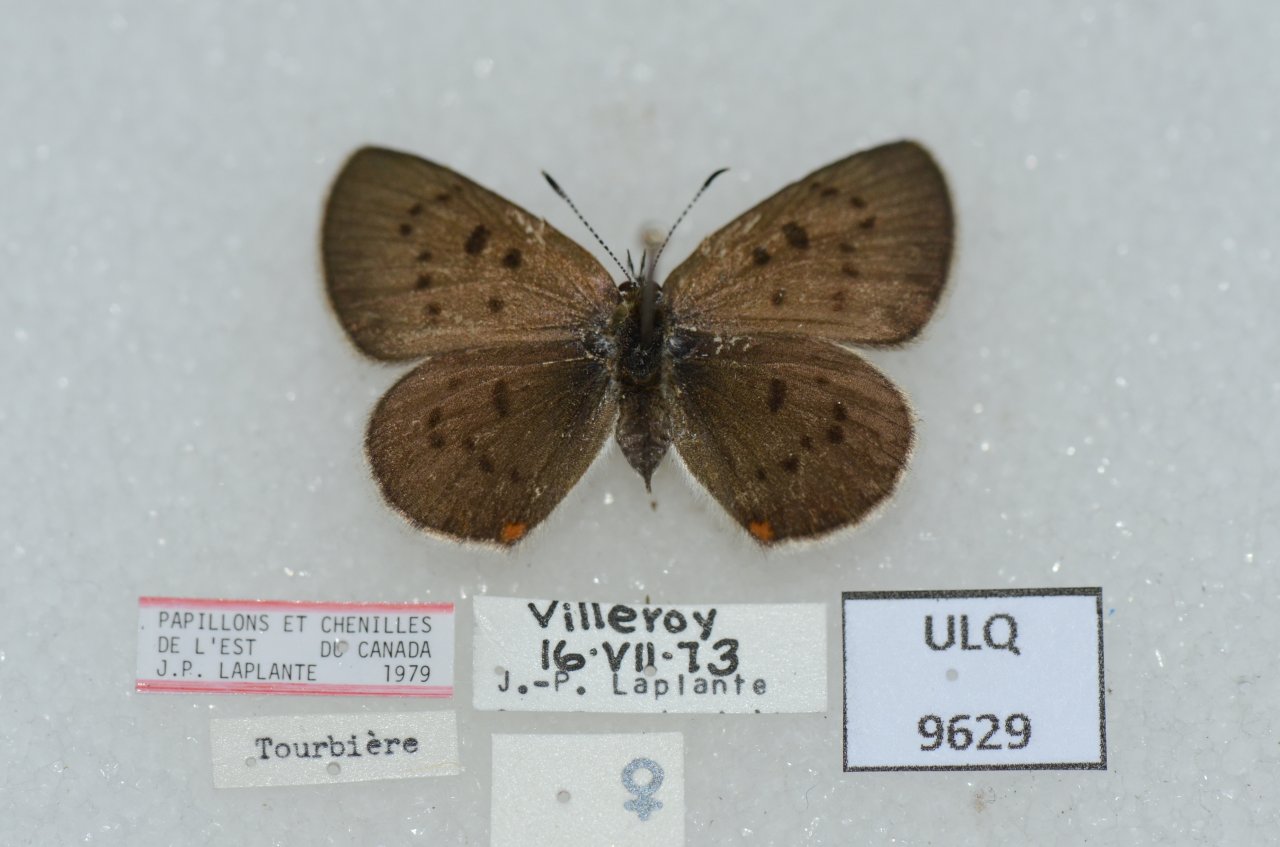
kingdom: Animalia
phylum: Arthropoda
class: Insecta
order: Lepidoptera
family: Sesiidae
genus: Sesia
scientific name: Sesia Lycaena epixanthe
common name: Bog Copper
